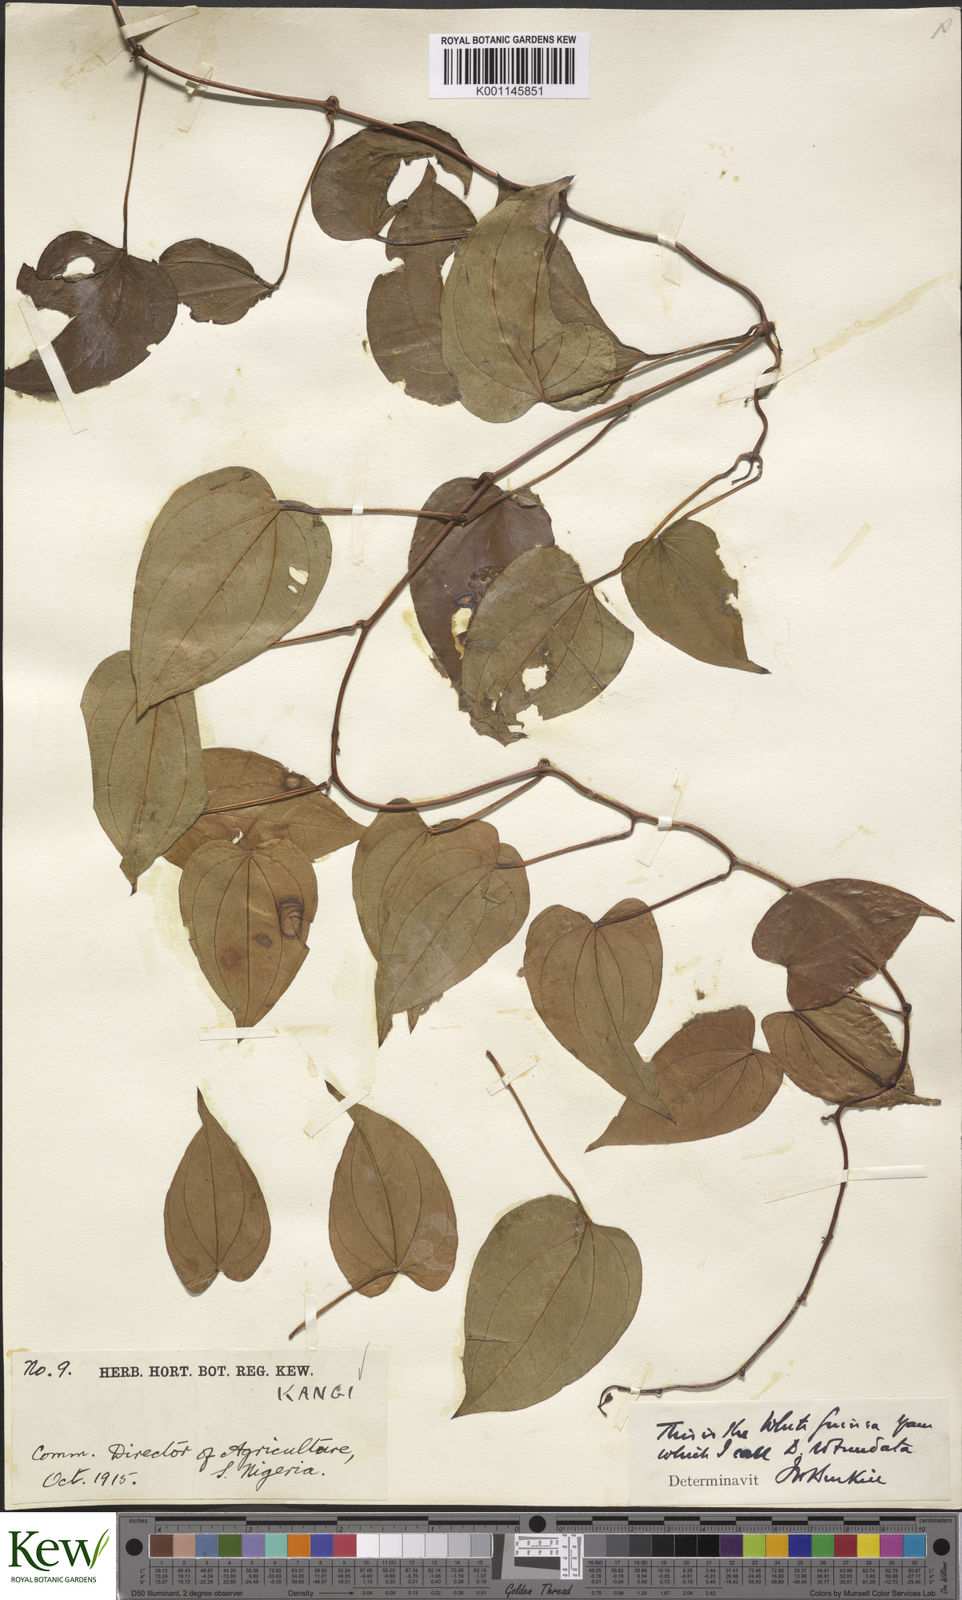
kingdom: Plantae
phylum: Tracheophyta
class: Liliopsida
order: Dioscoreales
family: Dioscoreaceae
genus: Dioscorea
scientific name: Dioscorea cayenensis
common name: Attoto yam
